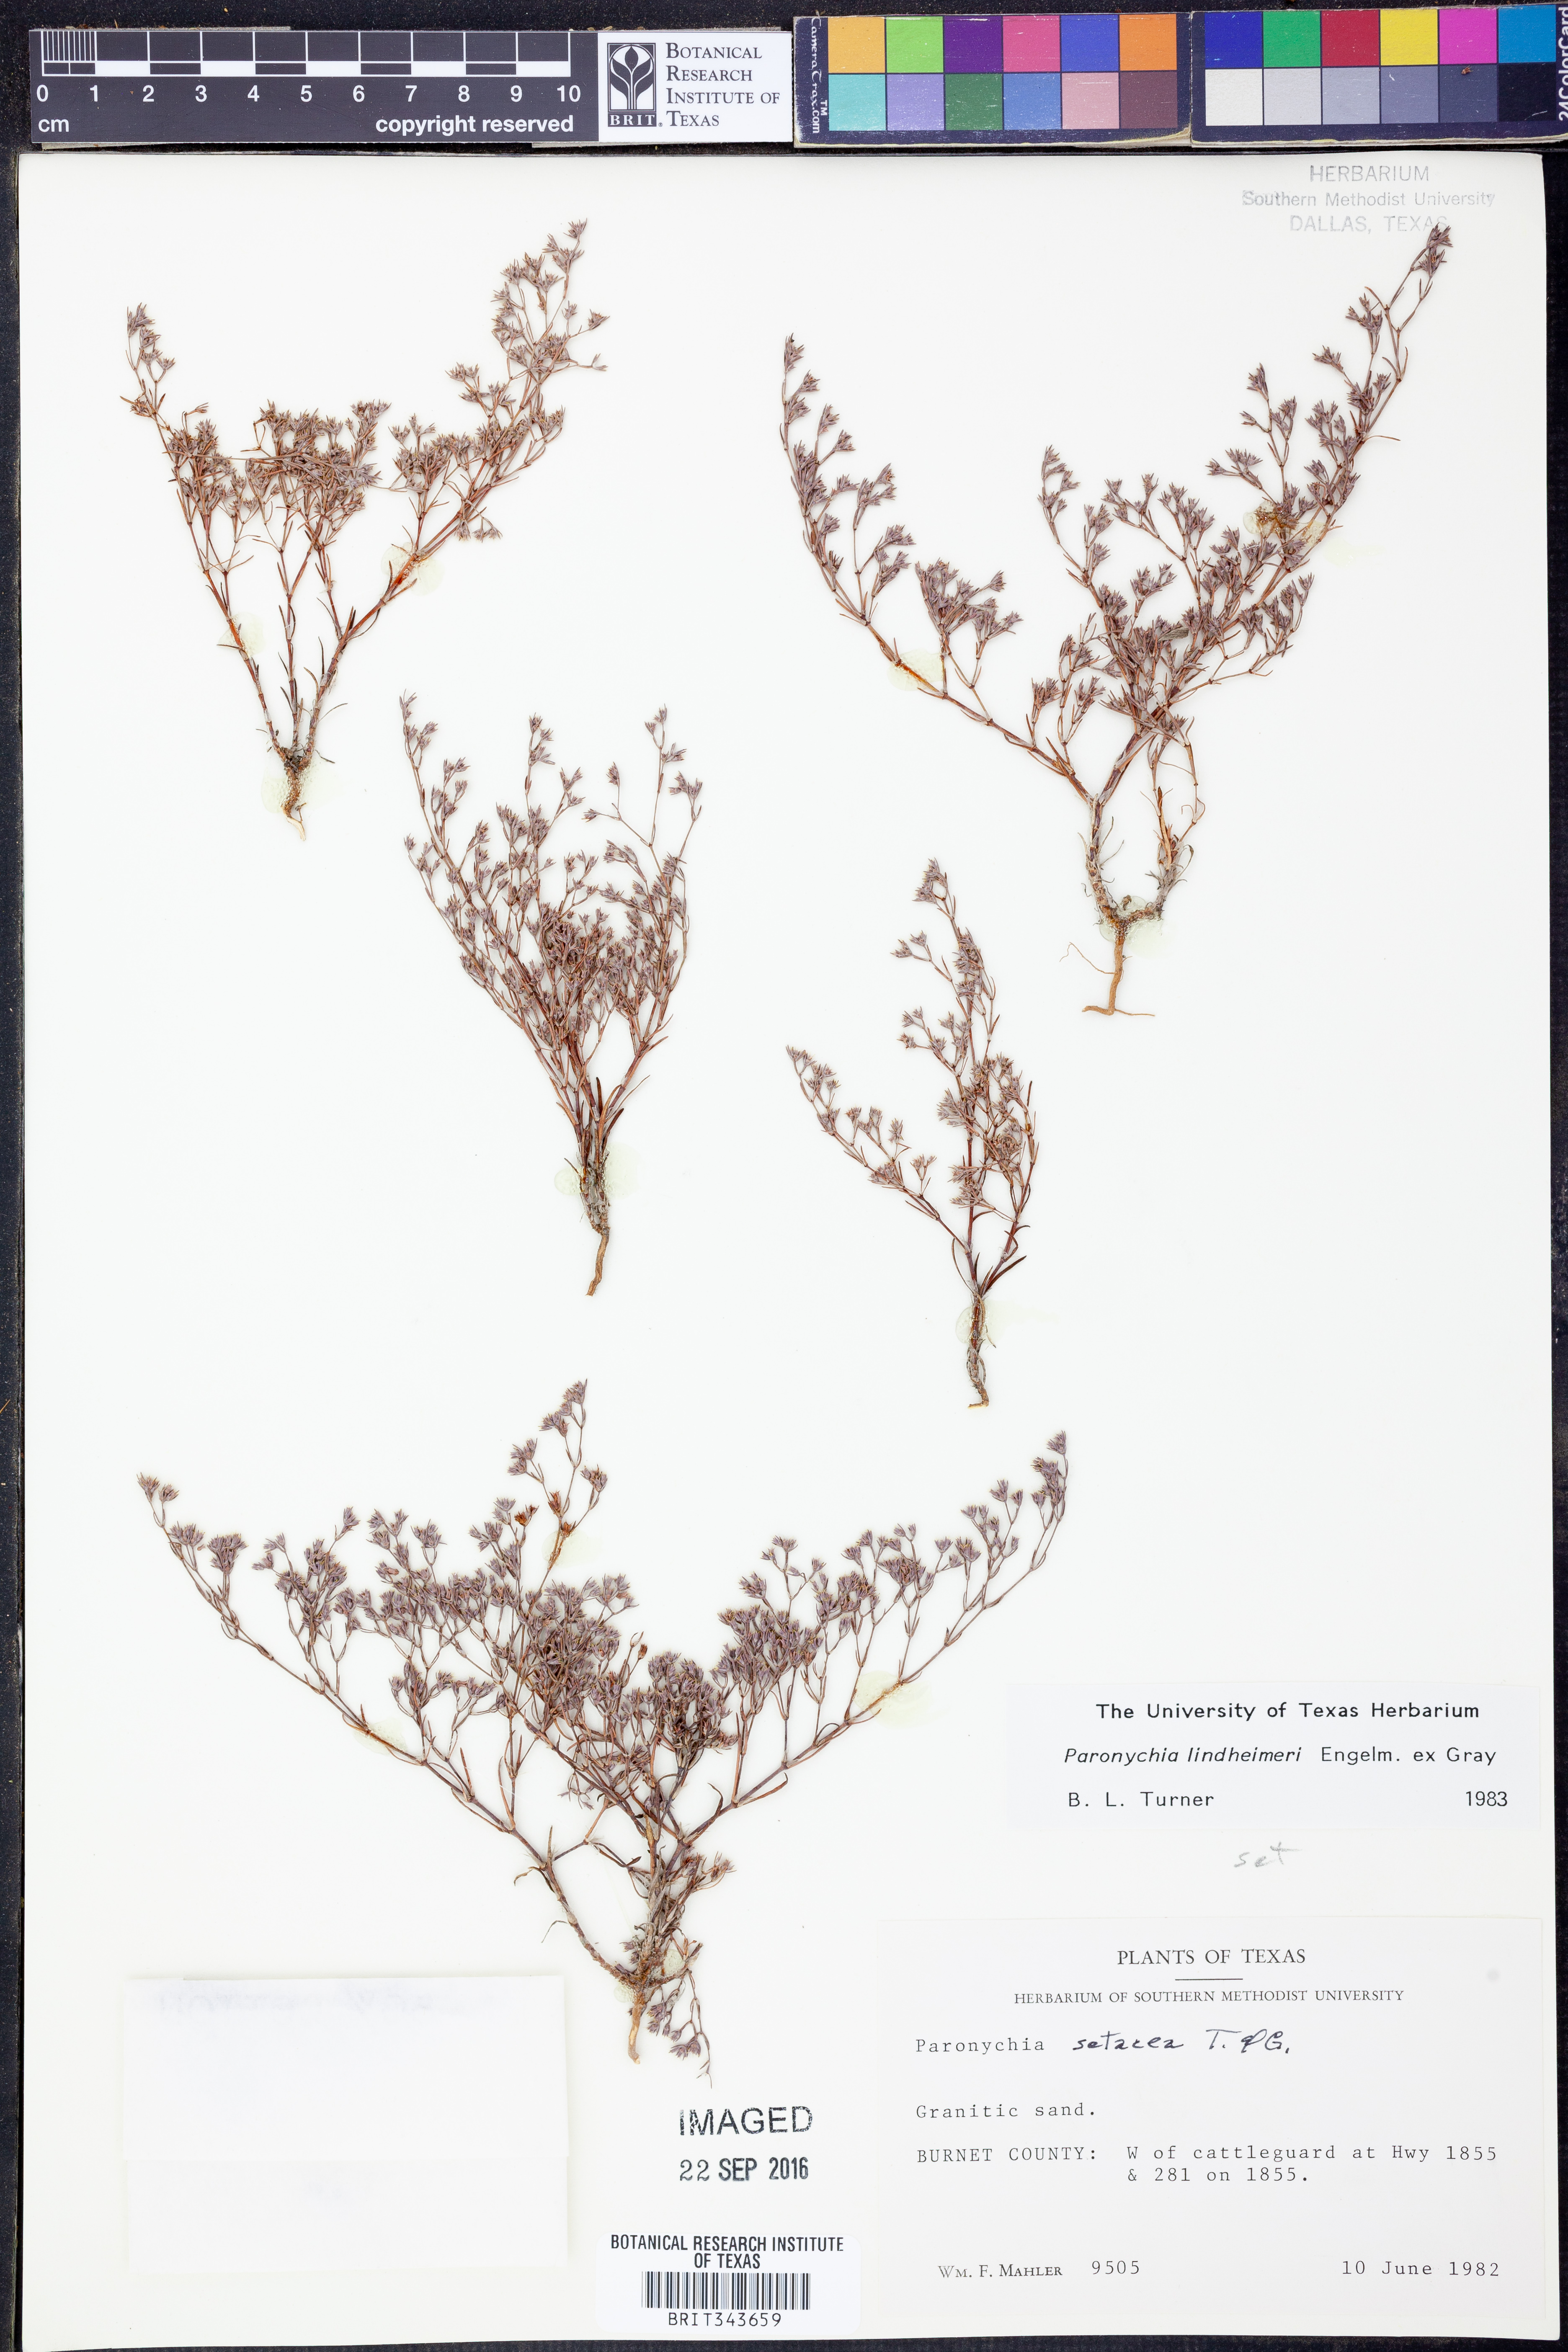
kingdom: Plantae
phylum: Tracheophyta
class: Magnoliopsida
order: Caryophyllales
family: Caryophyllaceae
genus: Paronychia
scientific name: Paronychia lindheimeri
